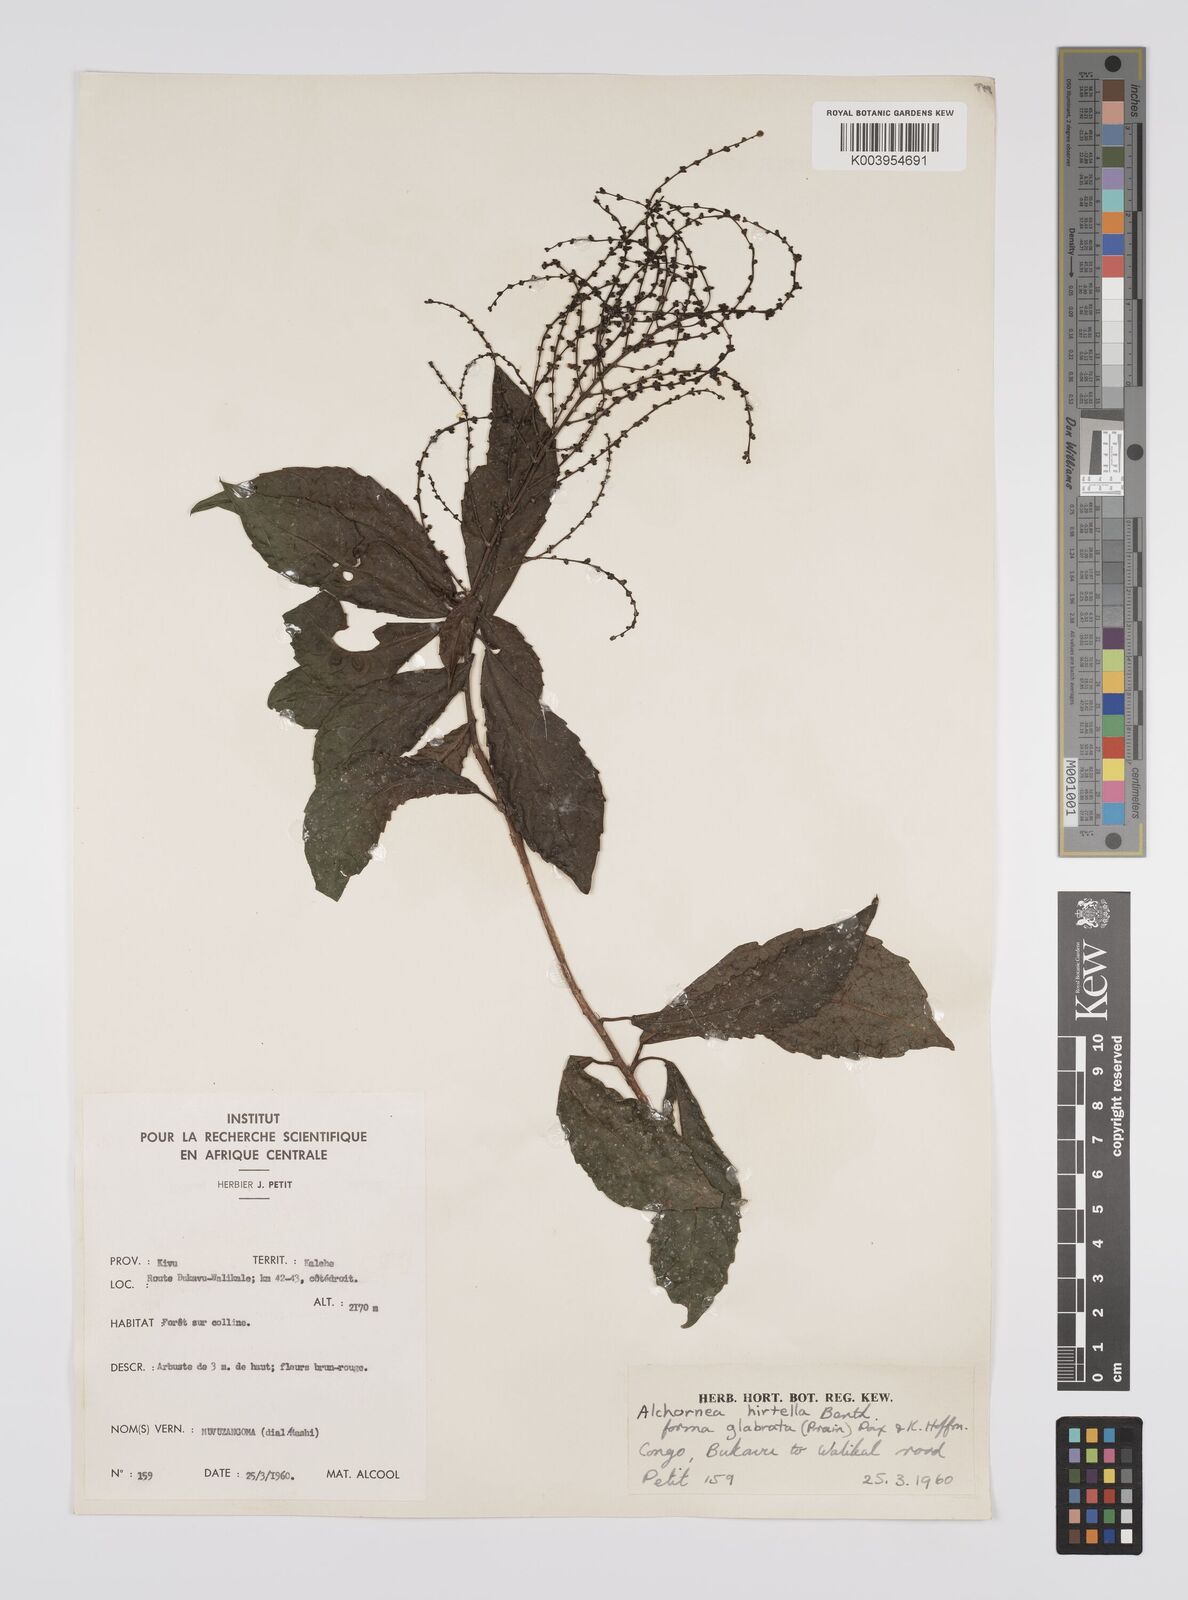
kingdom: Plantae
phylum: Tracheophyta
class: Magnoliopsida
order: Malpighiales
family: Euphorbiaceae
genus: Alchornea
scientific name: Alchornea hirtella
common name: Forest bead-string
